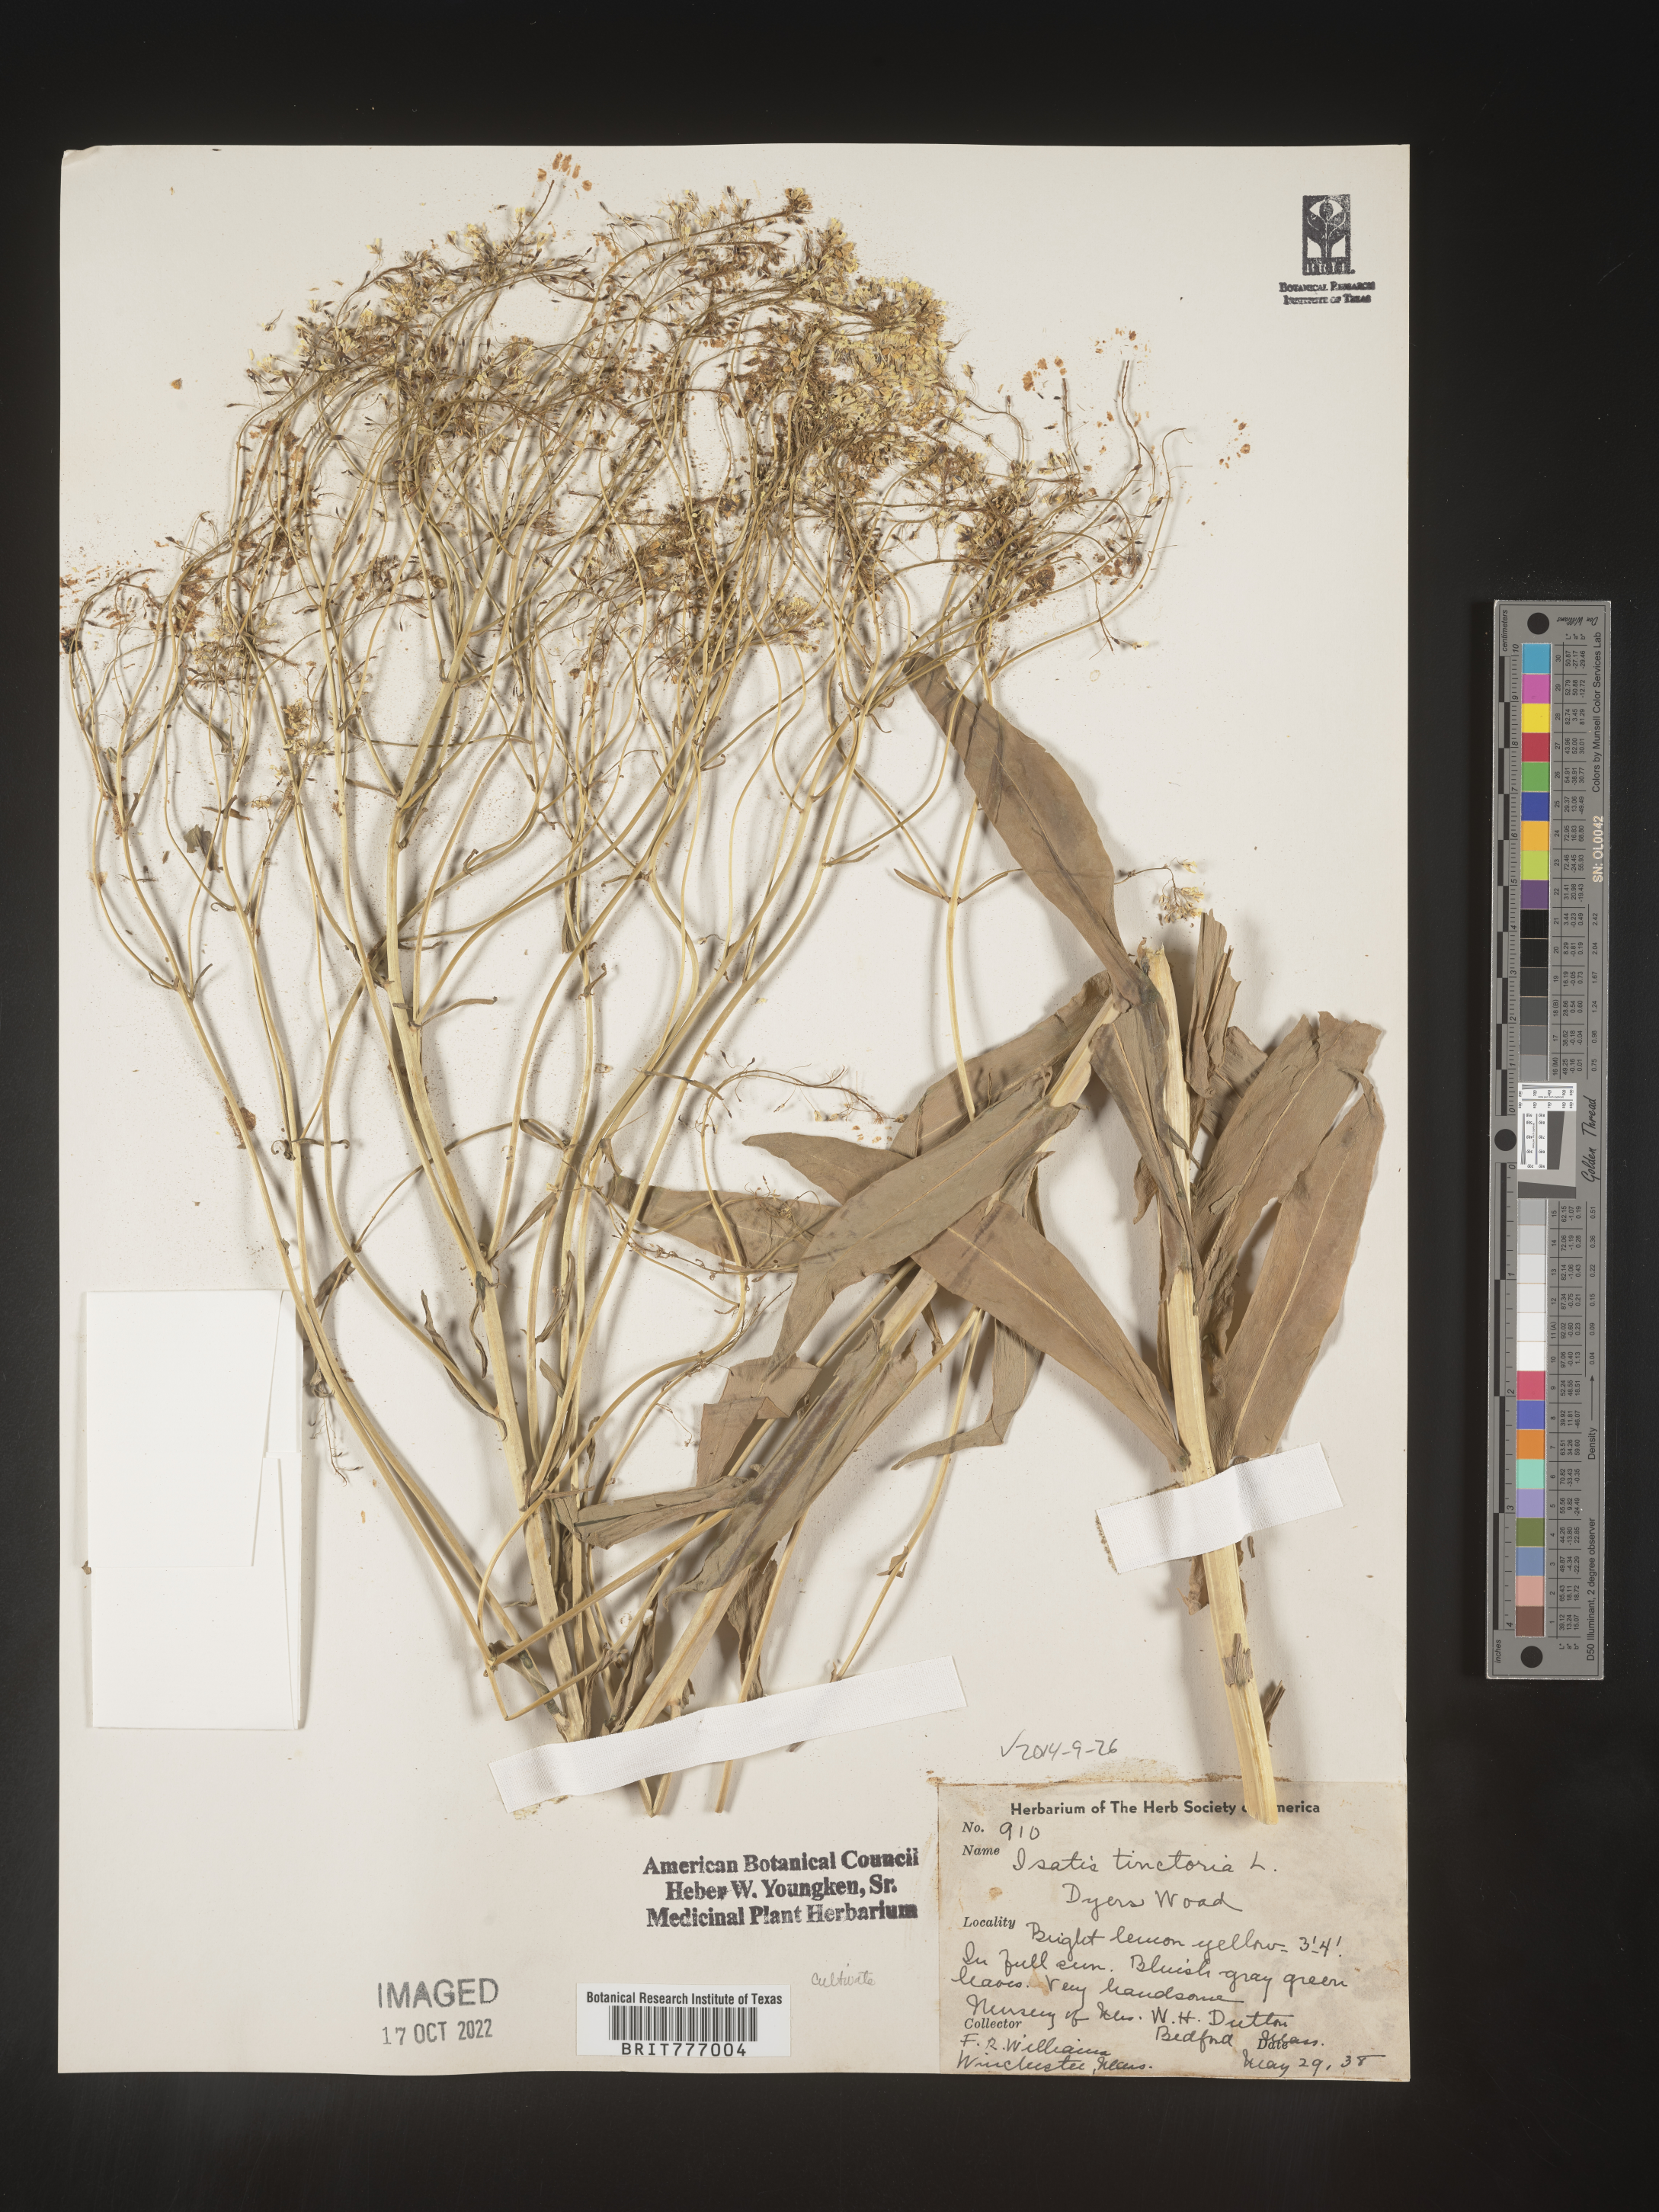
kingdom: Plantae
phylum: Tracheophyta
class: Magnoliopsida
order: Brassicales
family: Brassicaceae
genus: Isatis
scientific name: Isatis
